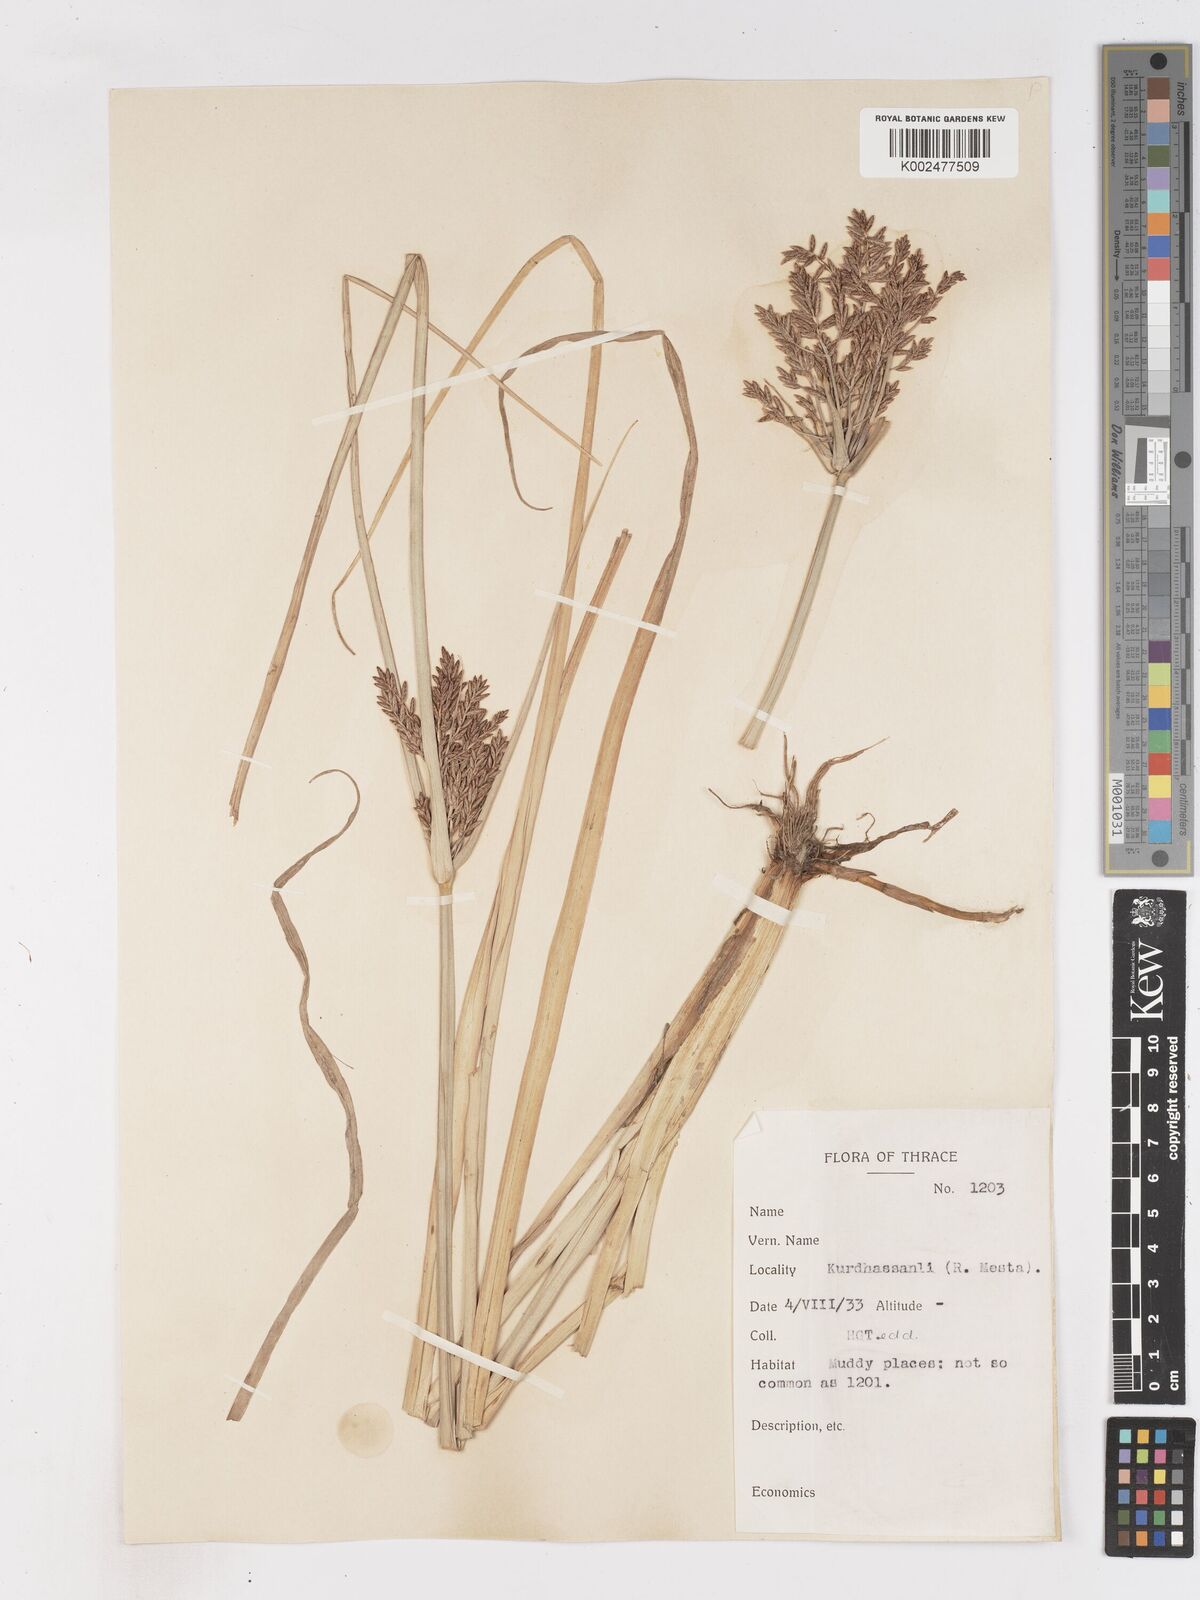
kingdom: Plantae
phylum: Tracheophyta
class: Liliopsida
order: Poales
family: Cyperaceae
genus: Cyperus
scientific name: Cyperus serotinus
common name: Tidalmarsh flatsedge
